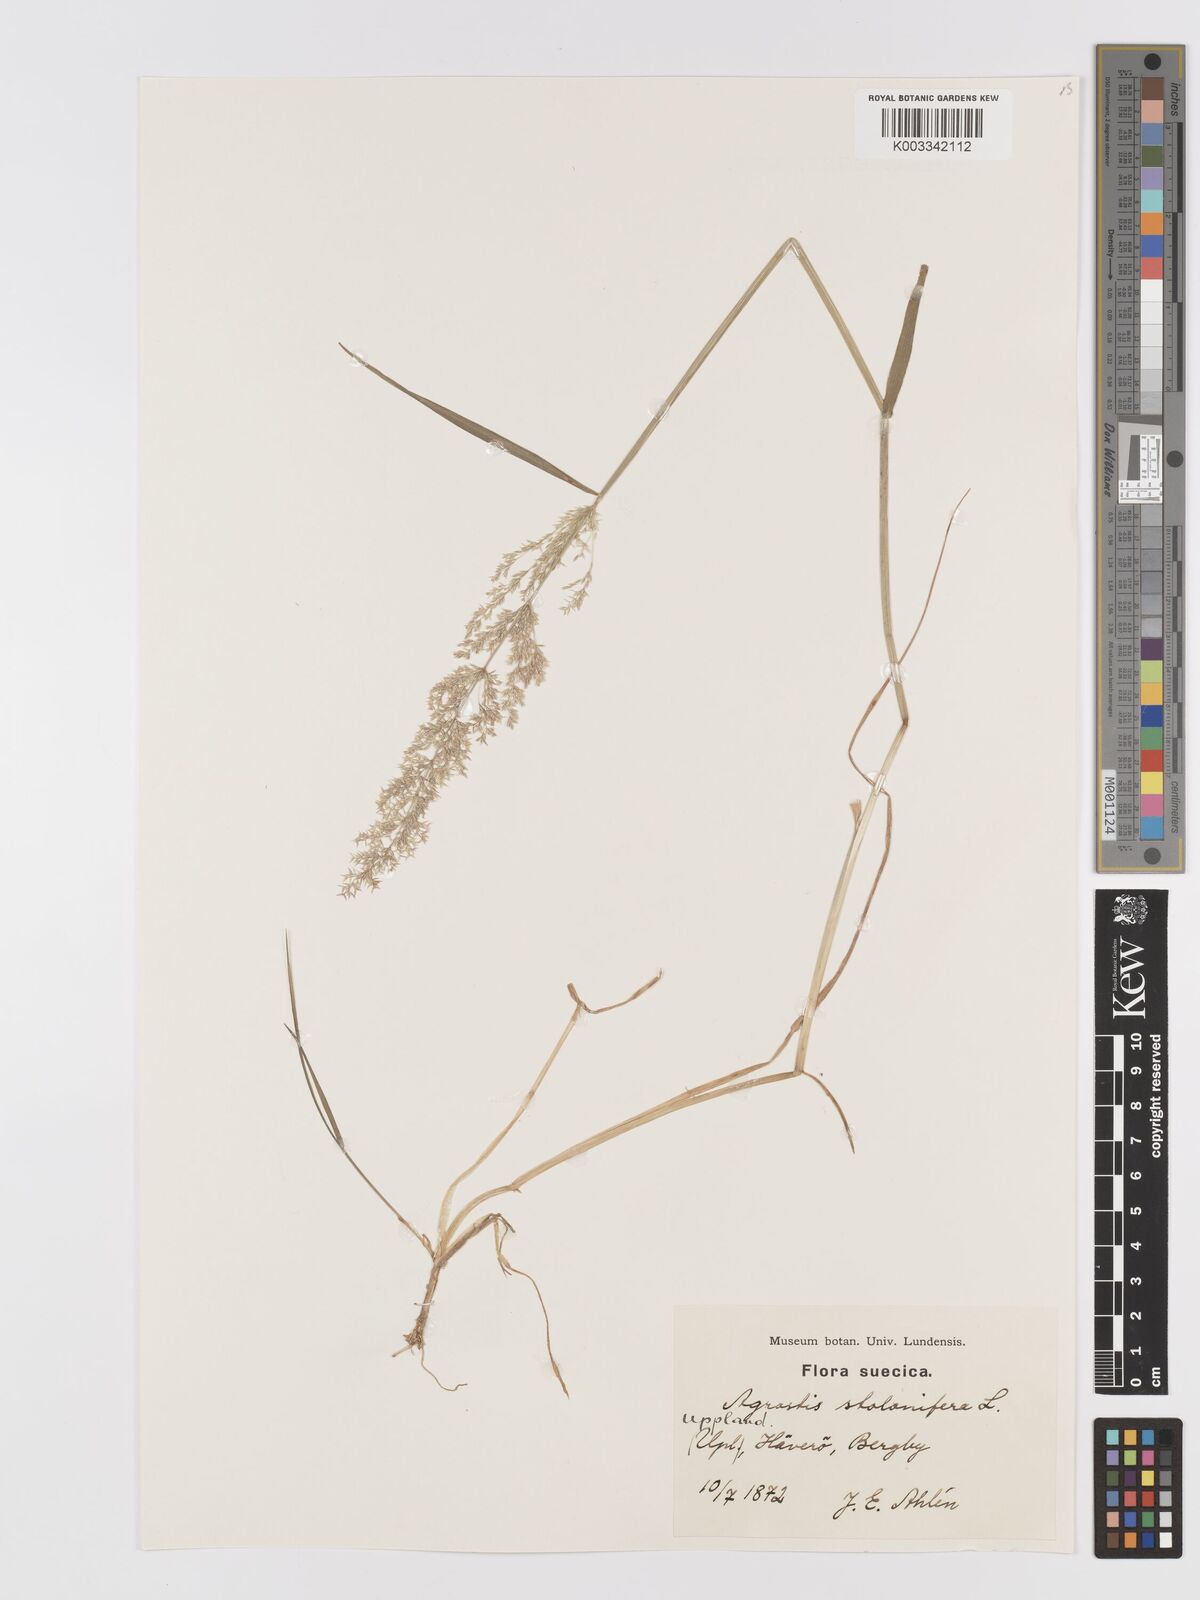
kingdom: Plantae
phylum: Tracheophyta
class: Liliopsida
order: Poales
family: Poaceae
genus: Agrostis
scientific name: Agrostis stolonifera
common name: Creeping bentgrass
